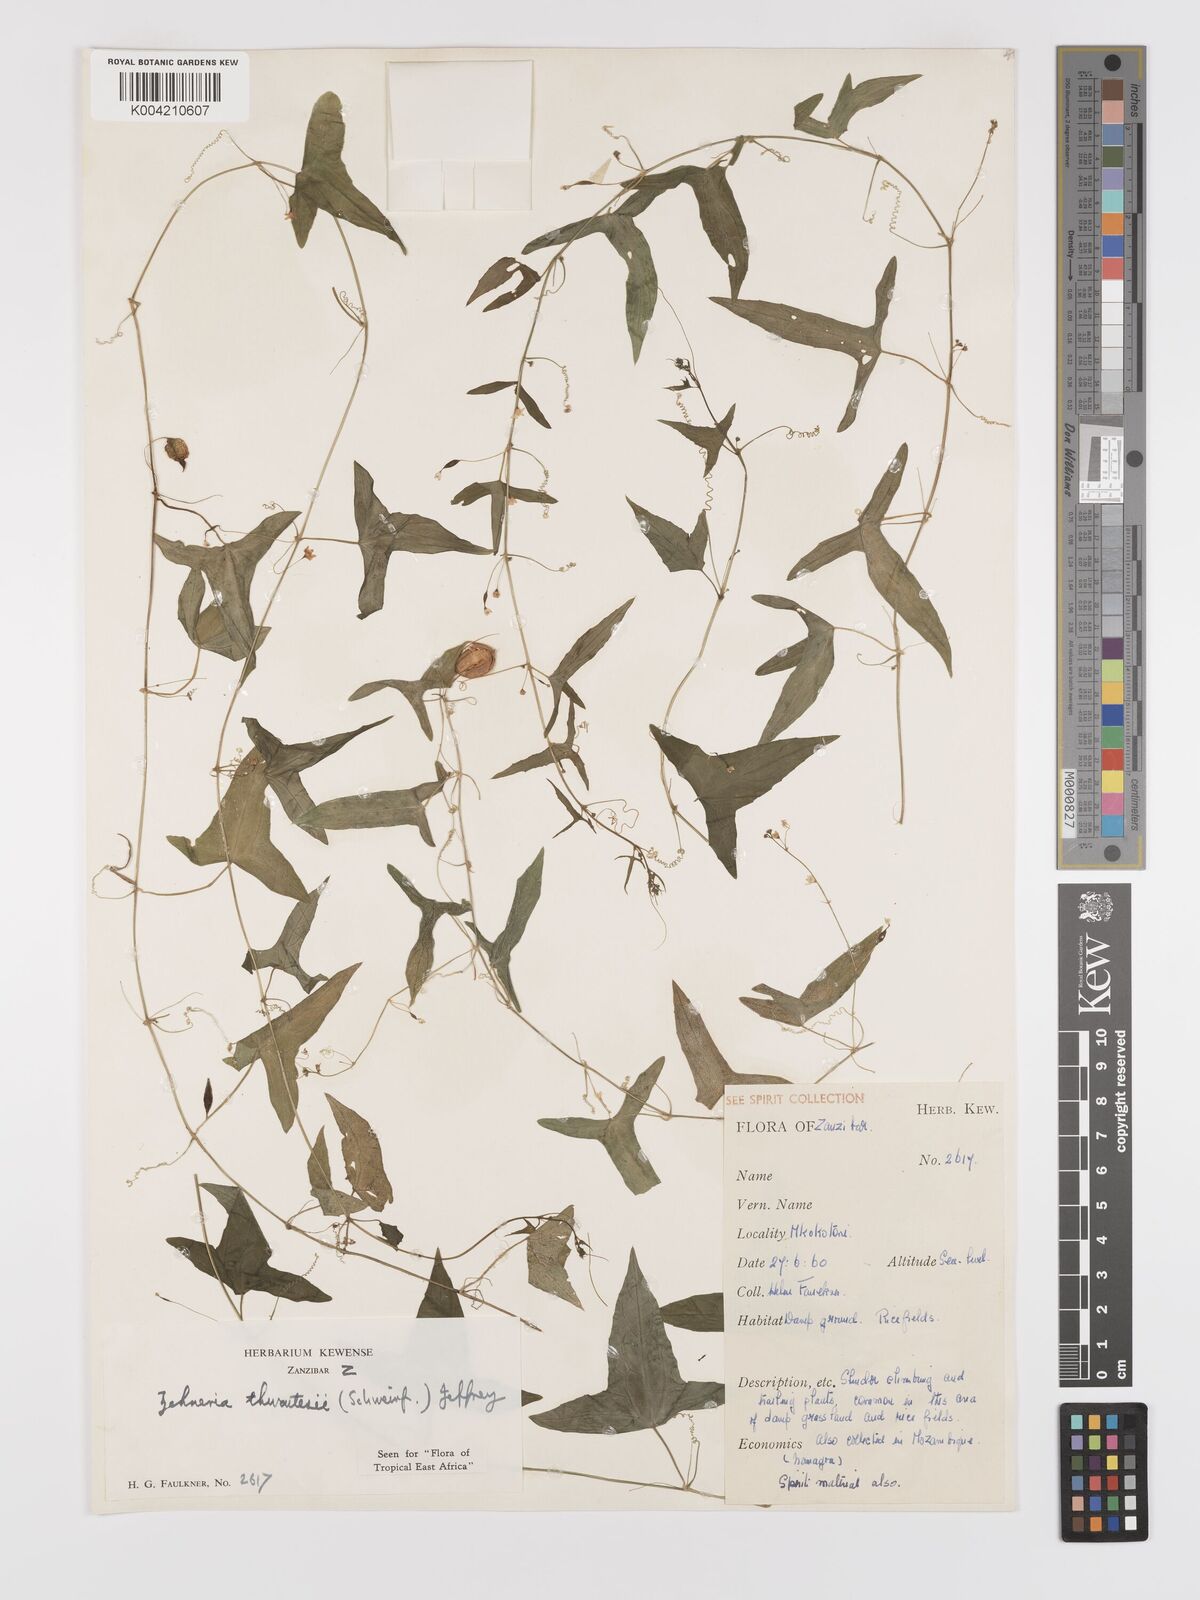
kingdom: Plantae
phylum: Tracheophyta
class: Magnoliopsida
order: Cucurbitales
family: Cucurbitaceae
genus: Zehneria
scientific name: Zehneria thwaitesii
